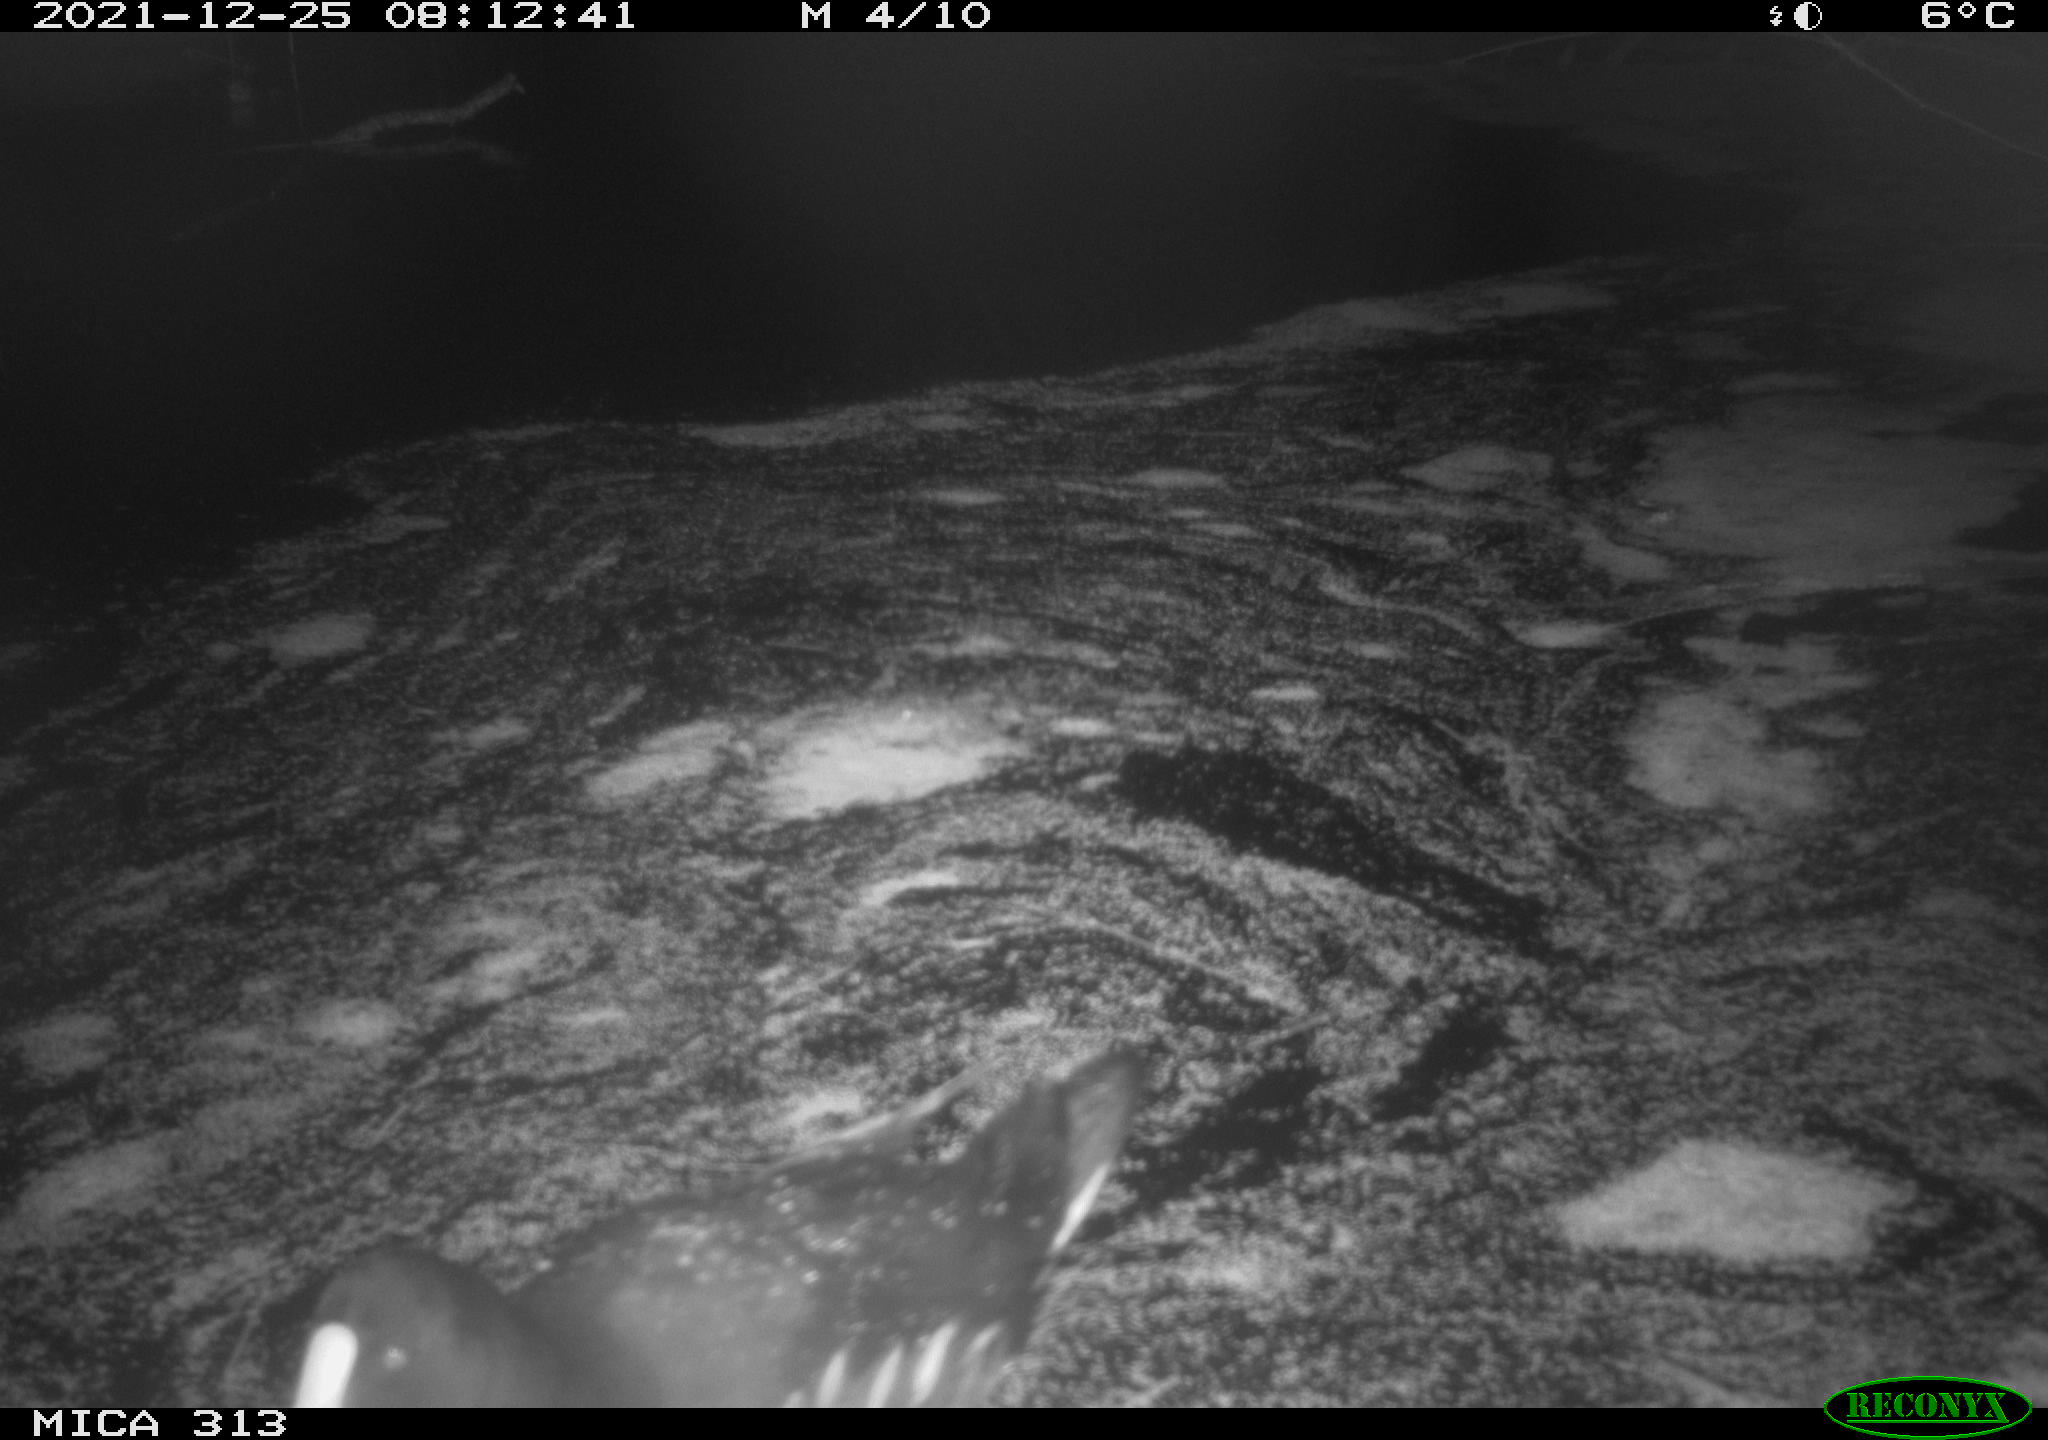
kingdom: Animalia
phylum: Chordata
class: Aves
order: Gruiformes
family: Rallidae
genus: Gallinula
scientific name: Gallinula chloropus
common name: Common moorhen
